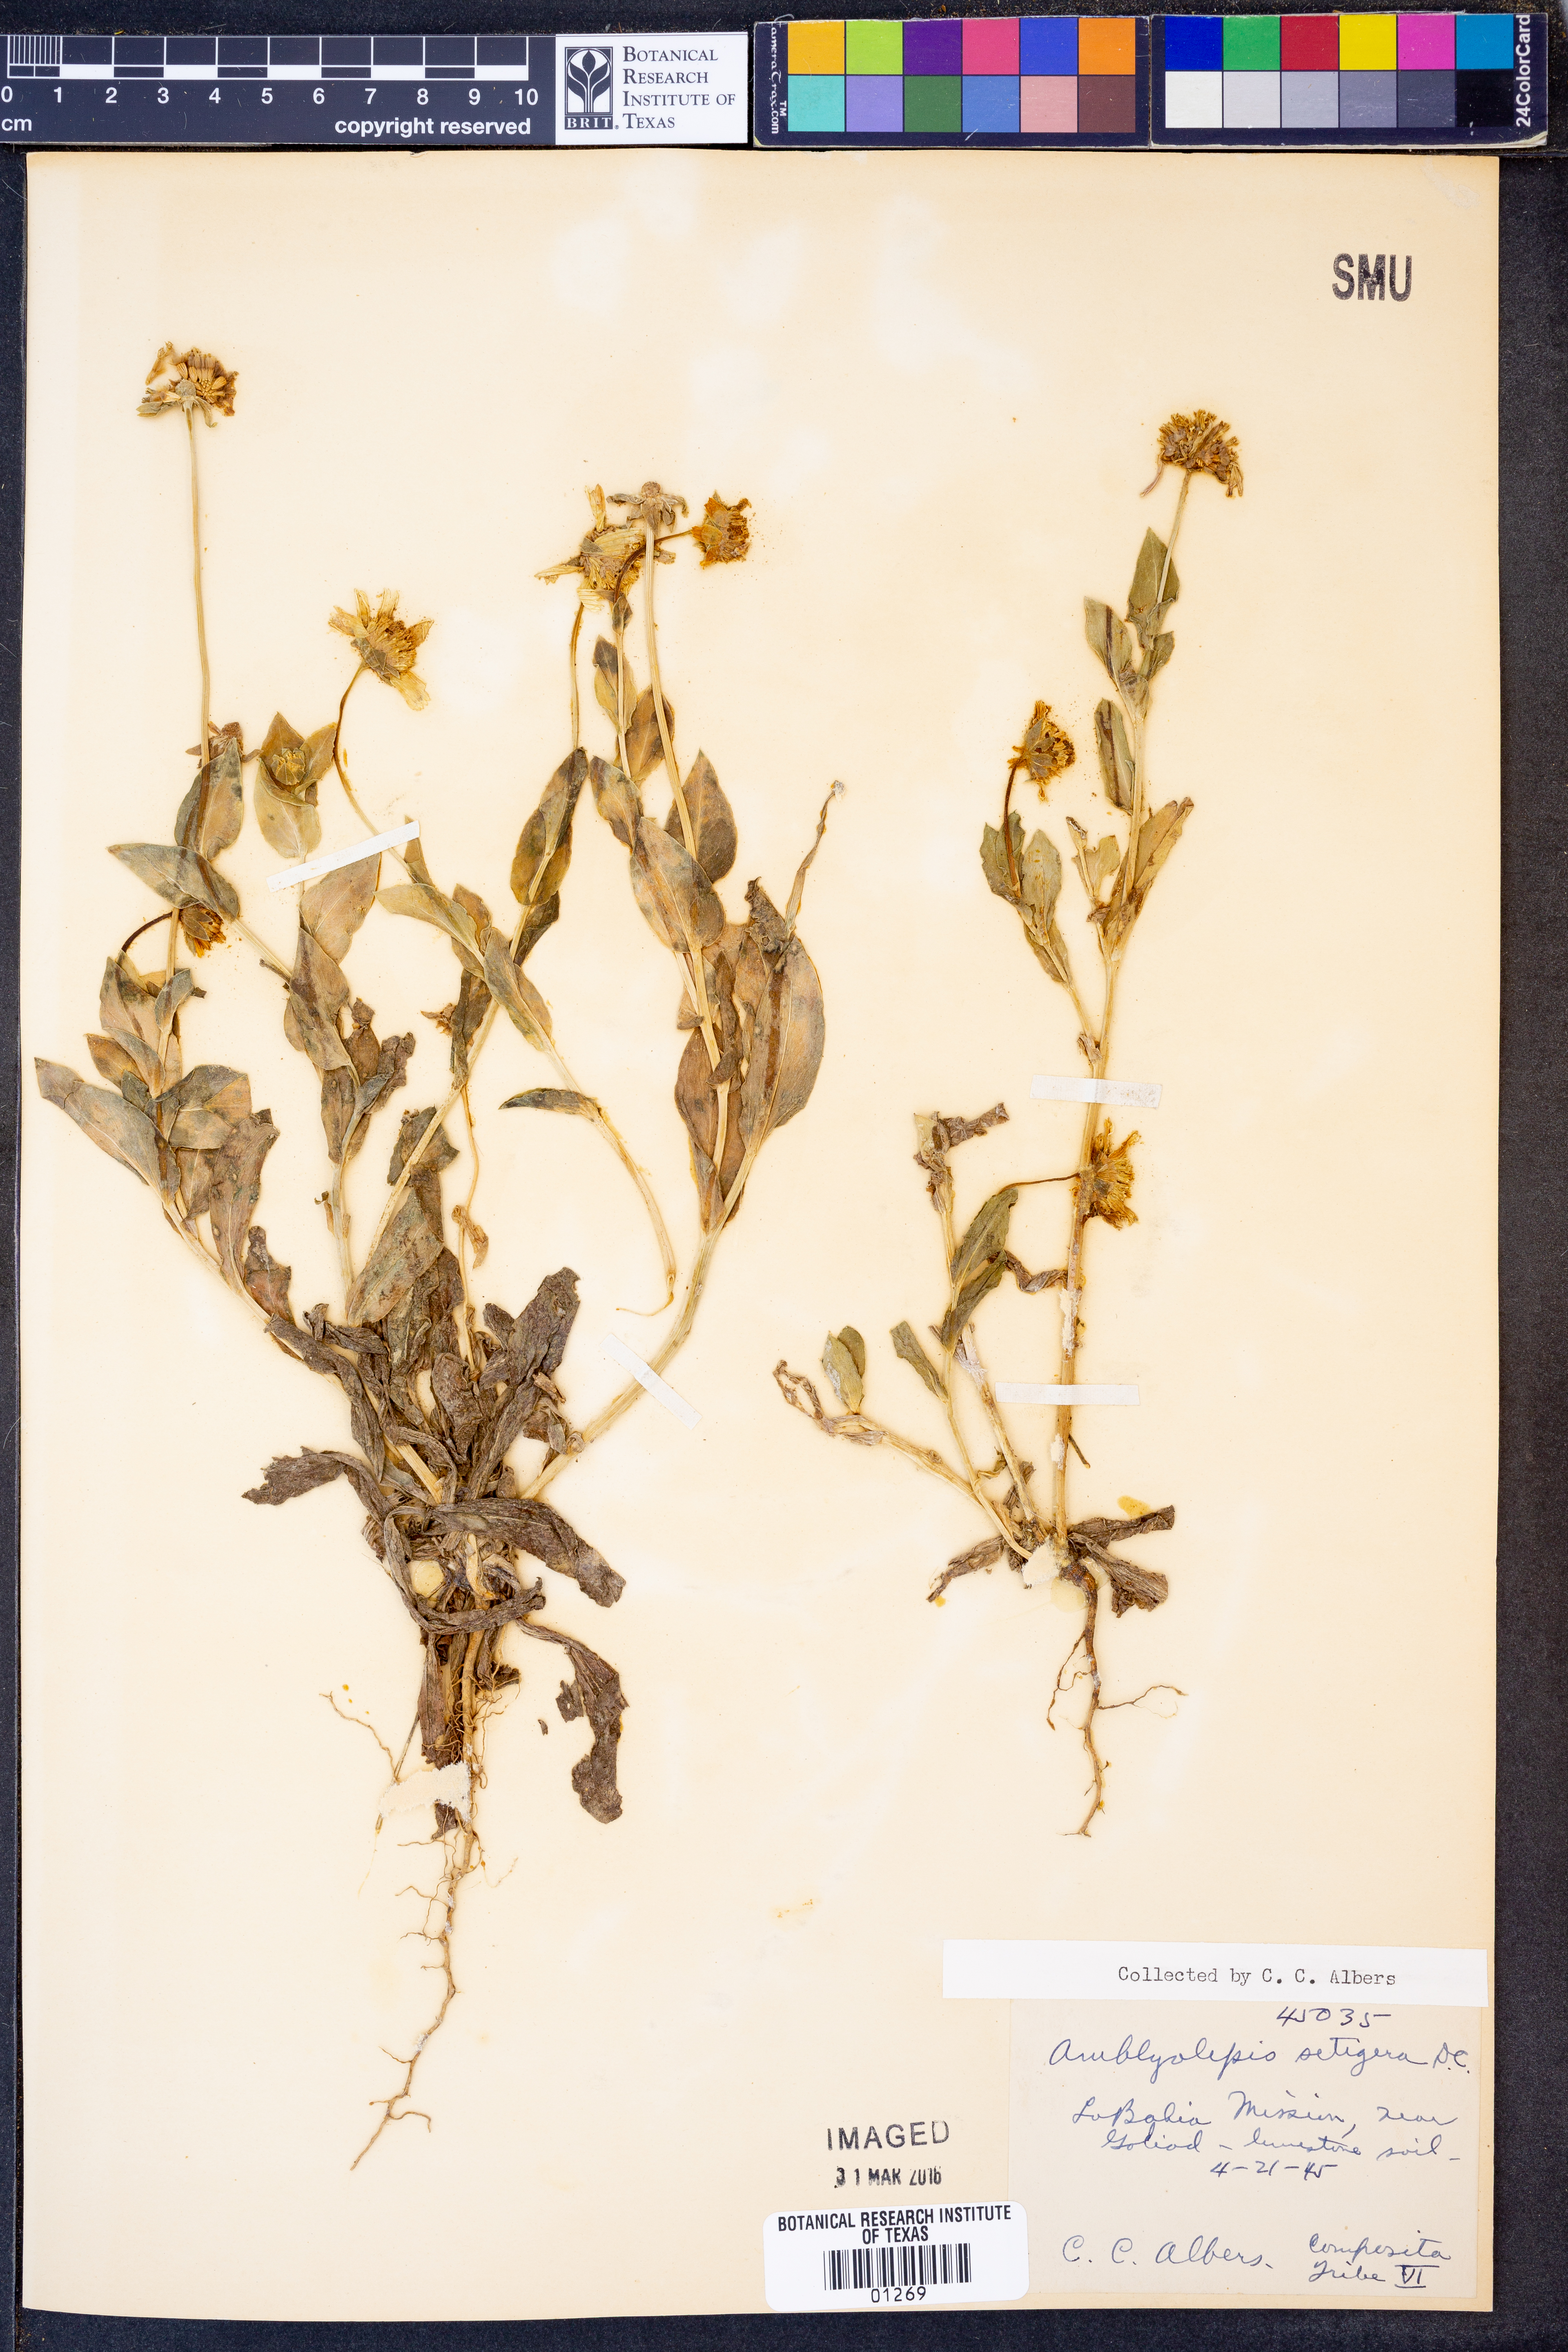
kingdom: Plantae
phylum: Tracheophyta
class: Magnoliopsida
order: Asterales
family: Asteraceae
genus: Amblyolepis
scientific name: Amblyolepis setigera
